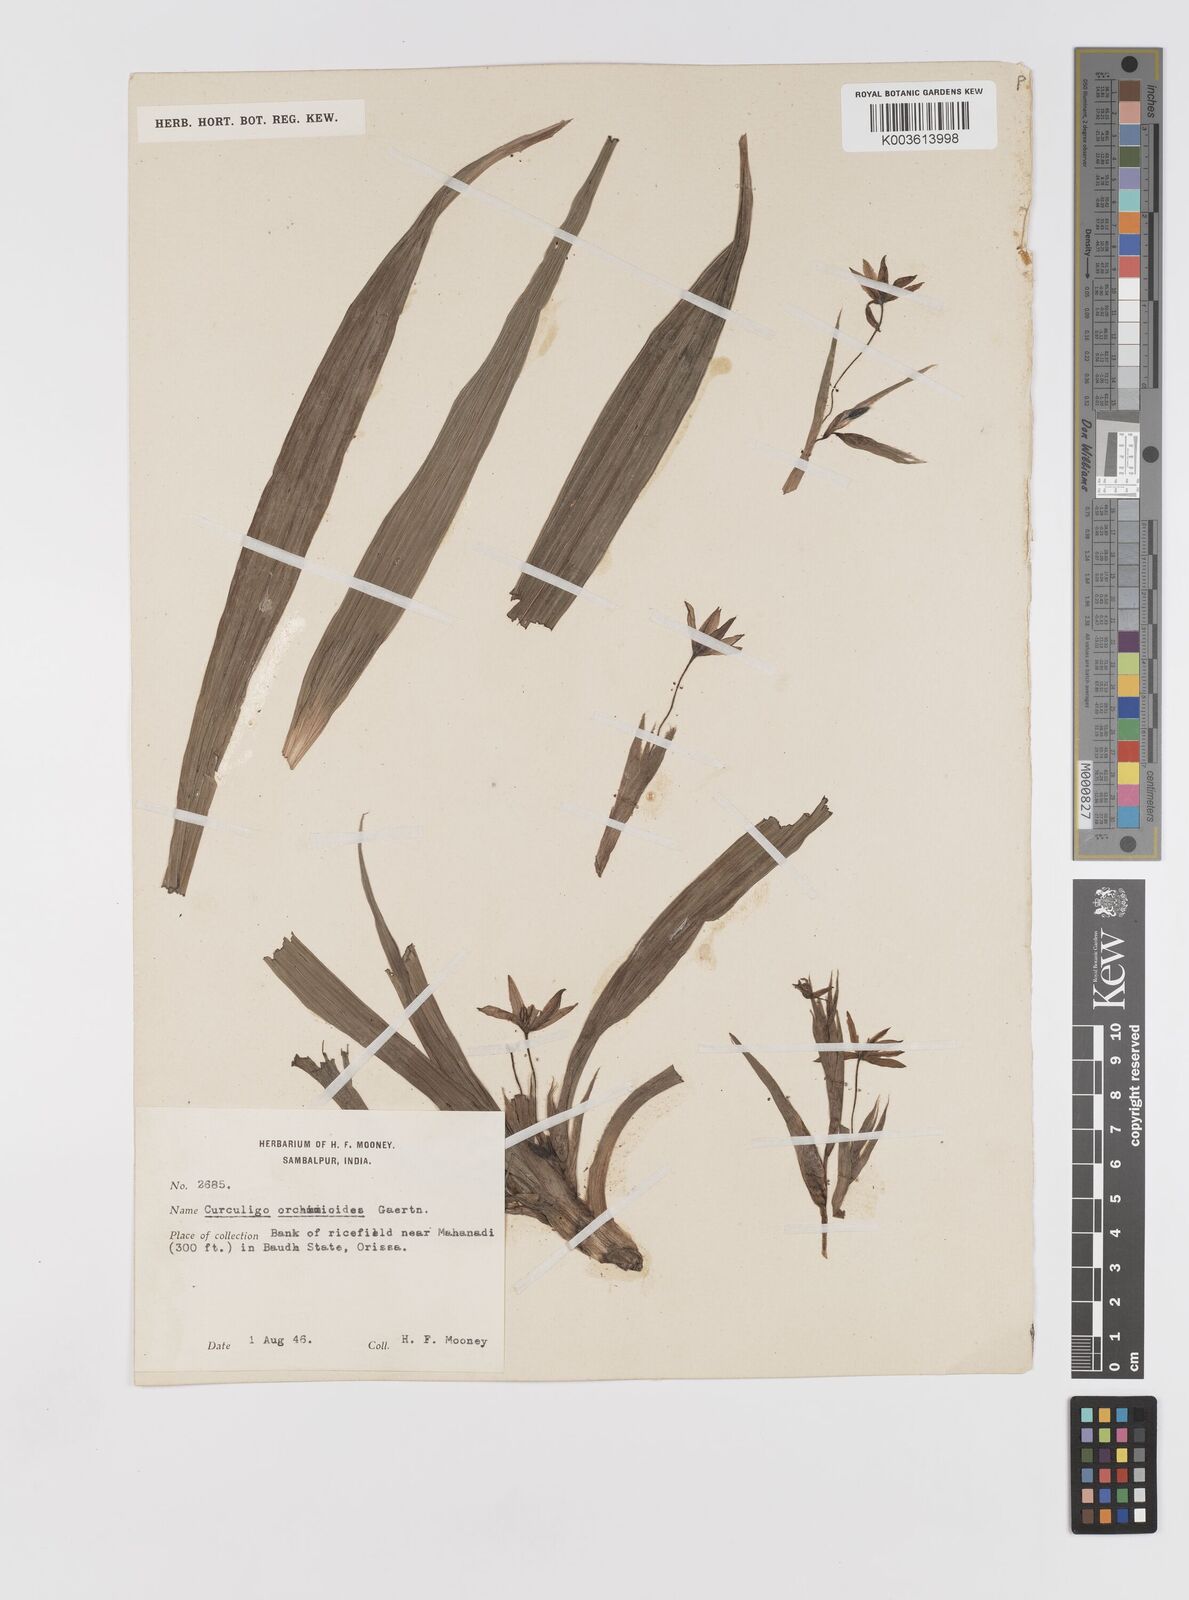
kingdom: Plantae
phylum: Tracheophyta
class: Liliopsida
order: Asparagales
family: Hypoxidaceae
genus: Curculigo
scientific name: Curculigo orchioides
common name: Golden eye-grass
